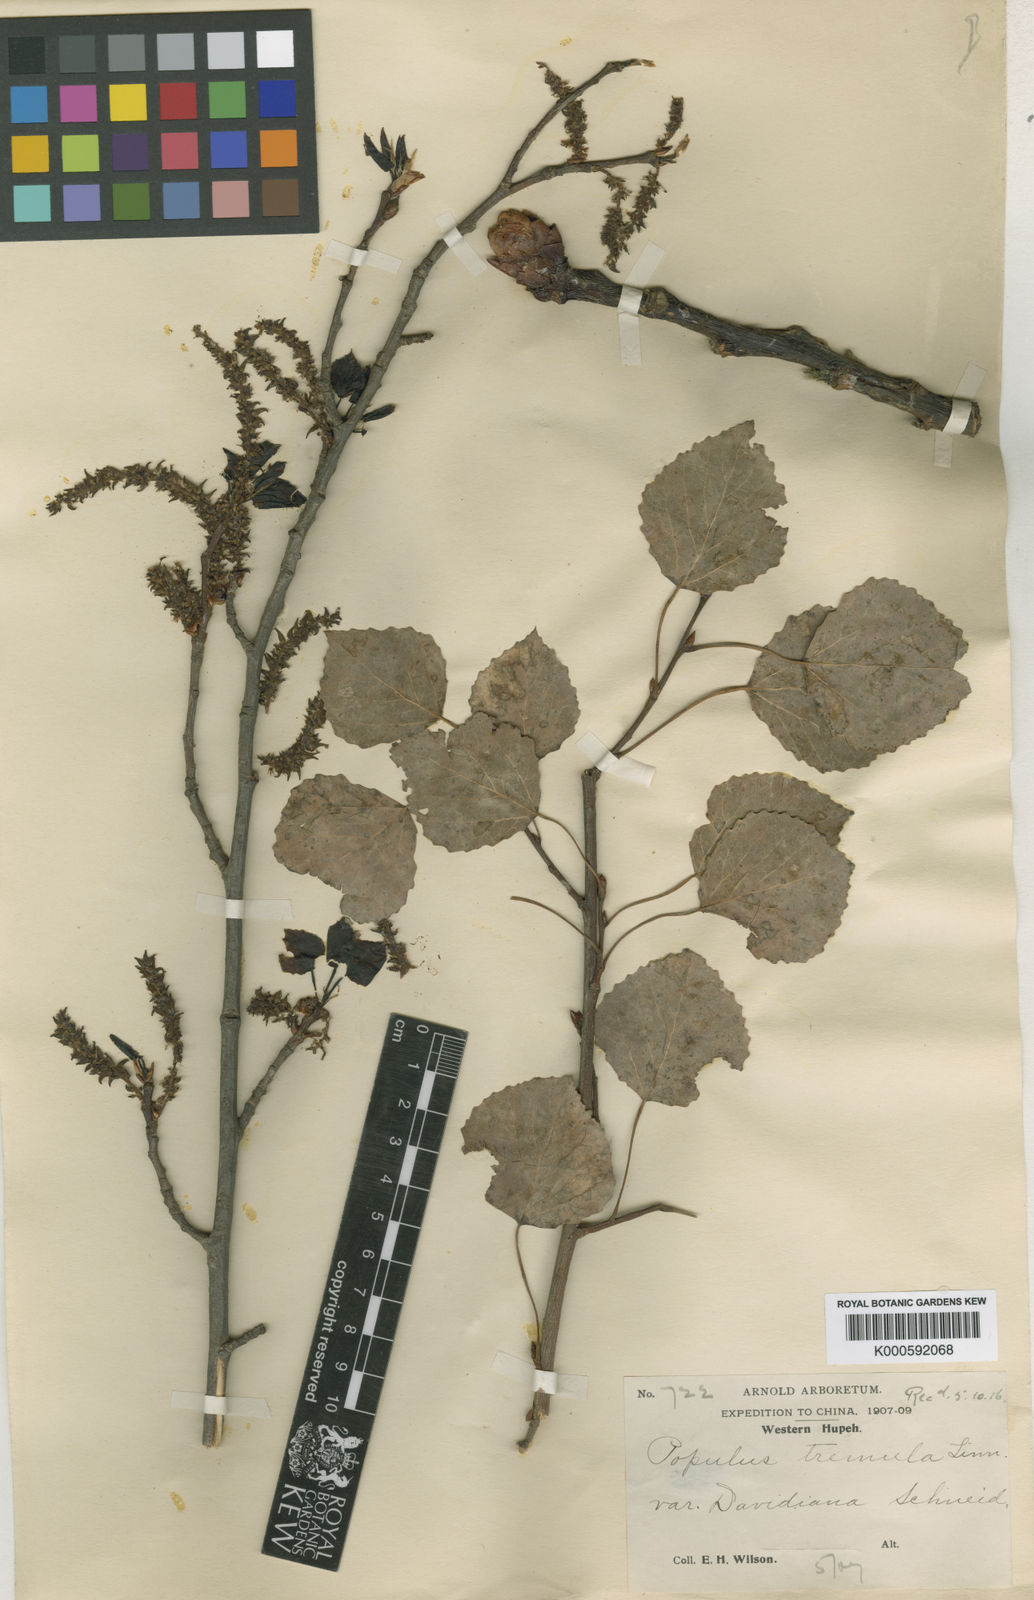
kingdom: Plantae
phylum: Tracheophyta
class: Magnoliopsida
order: Malpighiales
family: Salicaceae
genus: Populus
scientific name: Populus tremula
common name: European aspen
